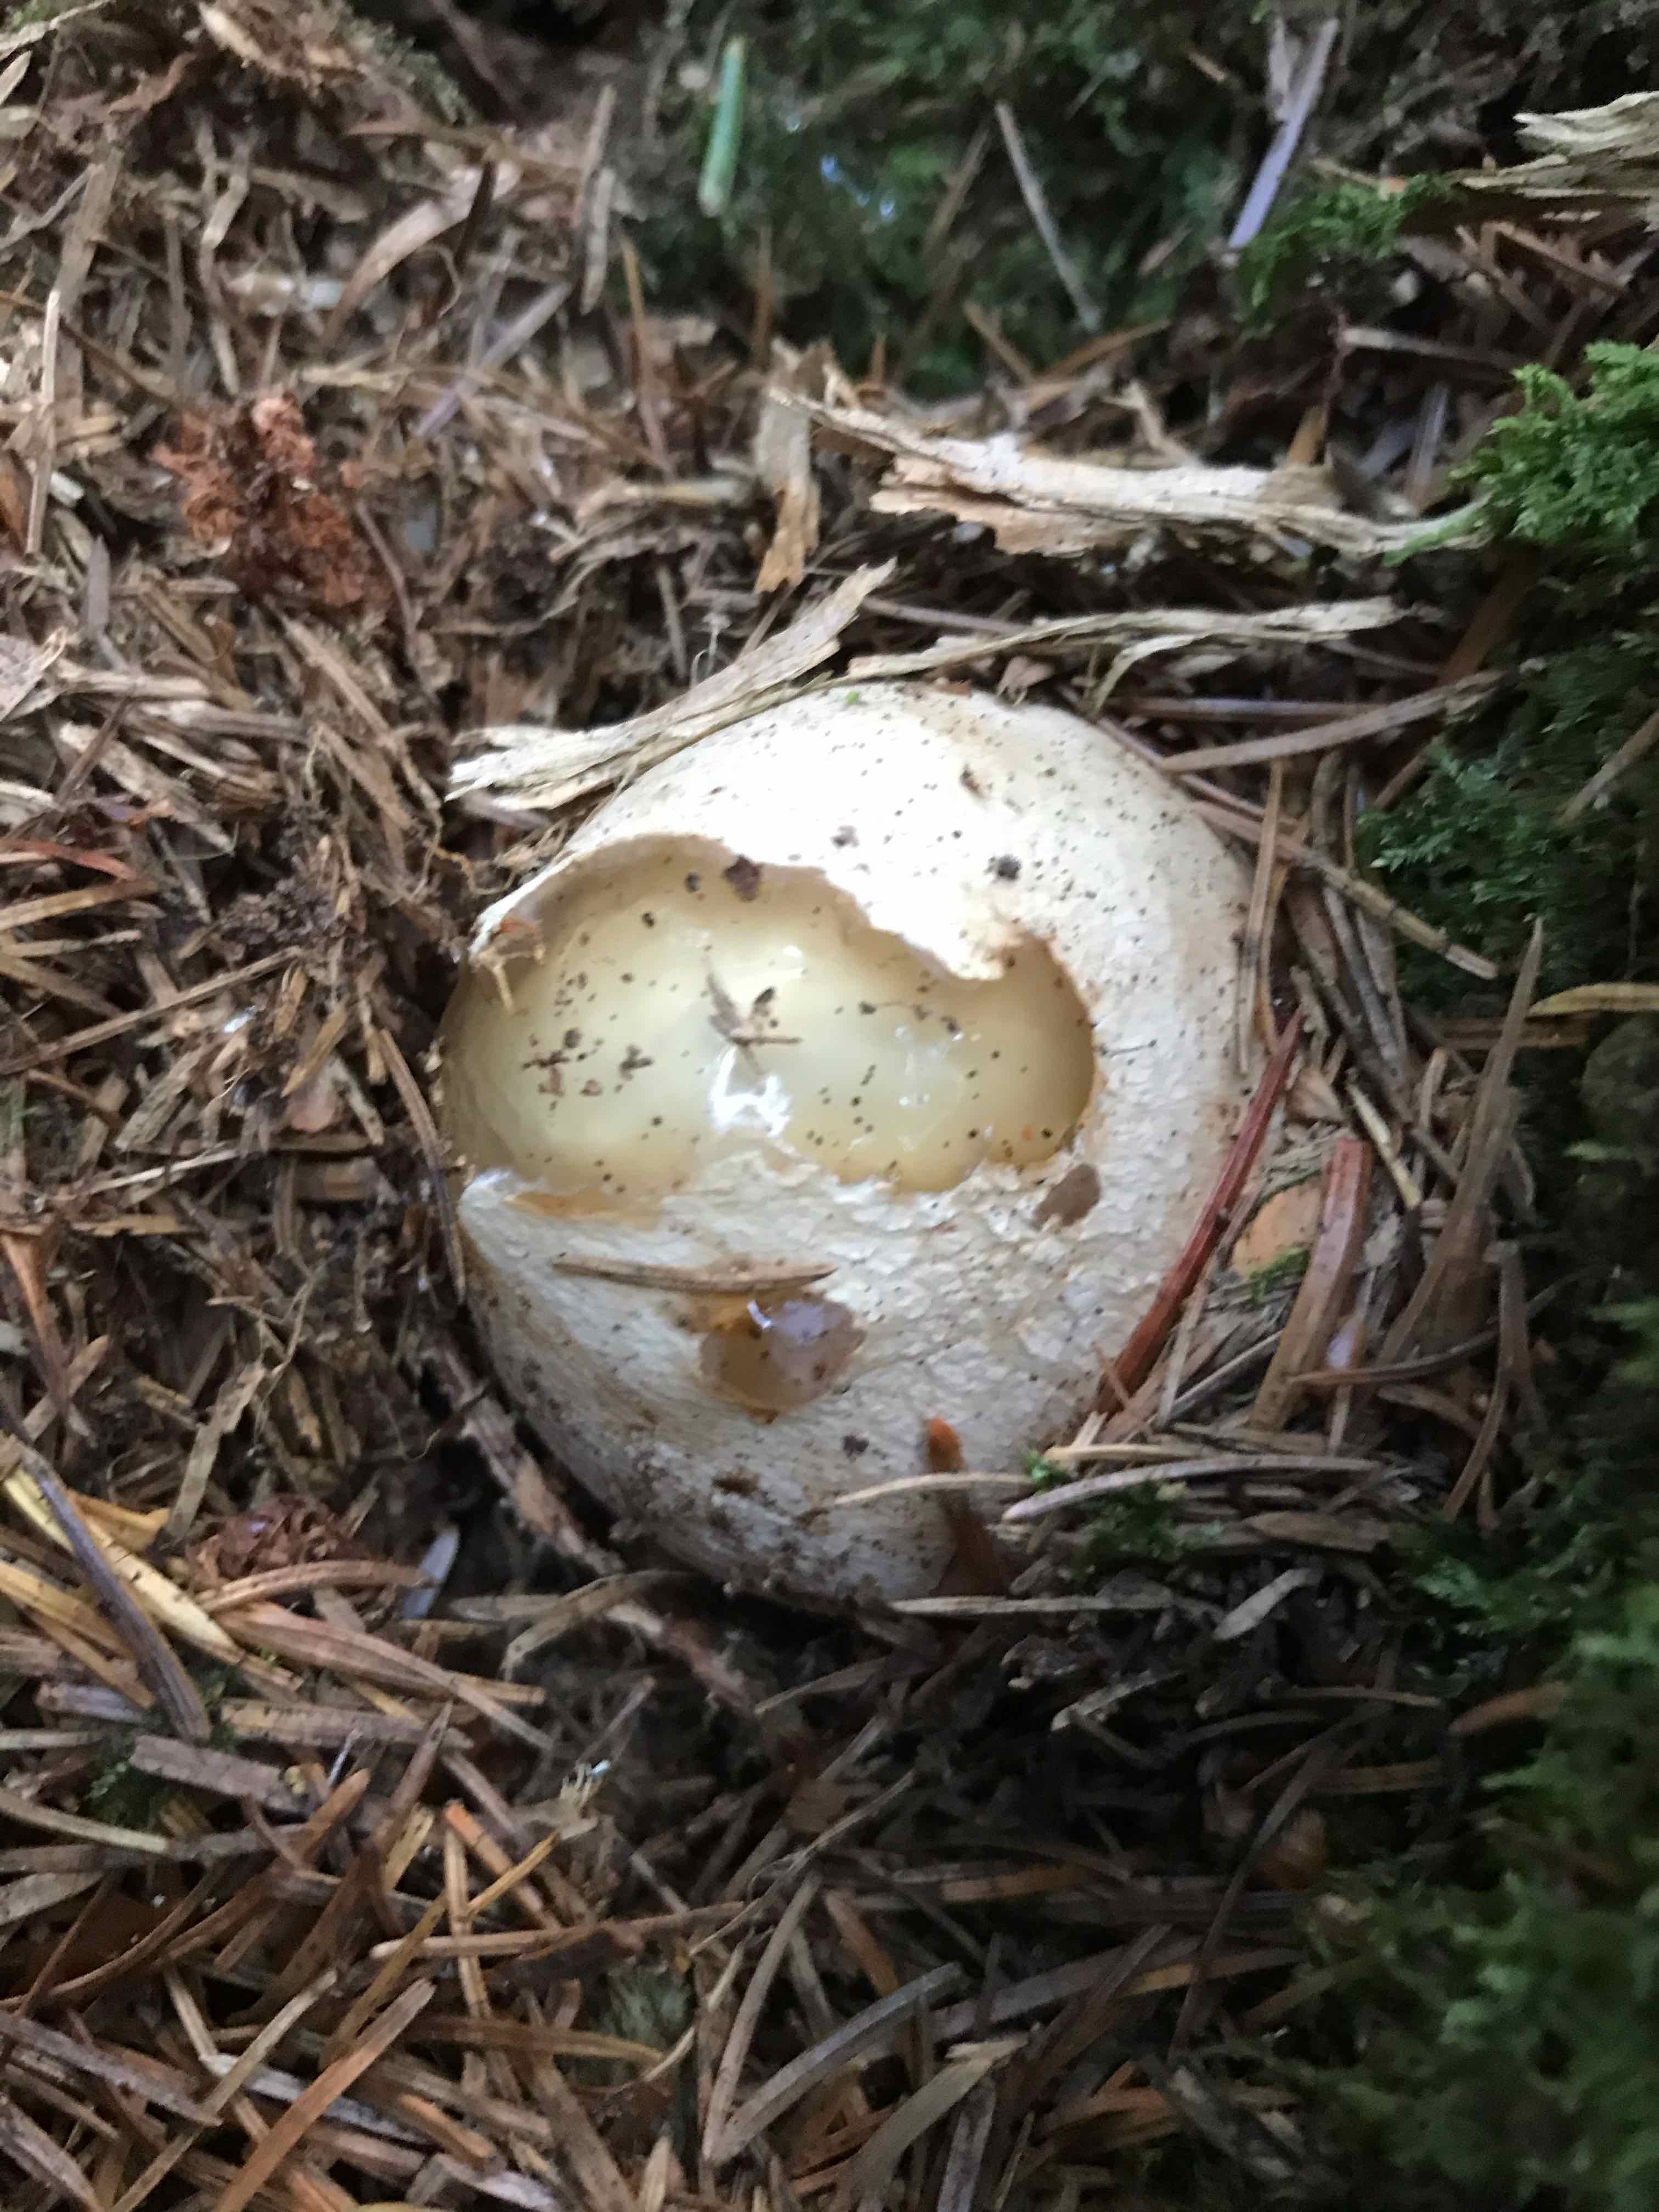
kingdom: Fungi
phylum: Basidiomycota
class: Agaricomycetes
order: Phallales
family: Phallaceae
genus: Phallus
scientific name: Phallus impudicus
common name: almindelig stinksvamp
